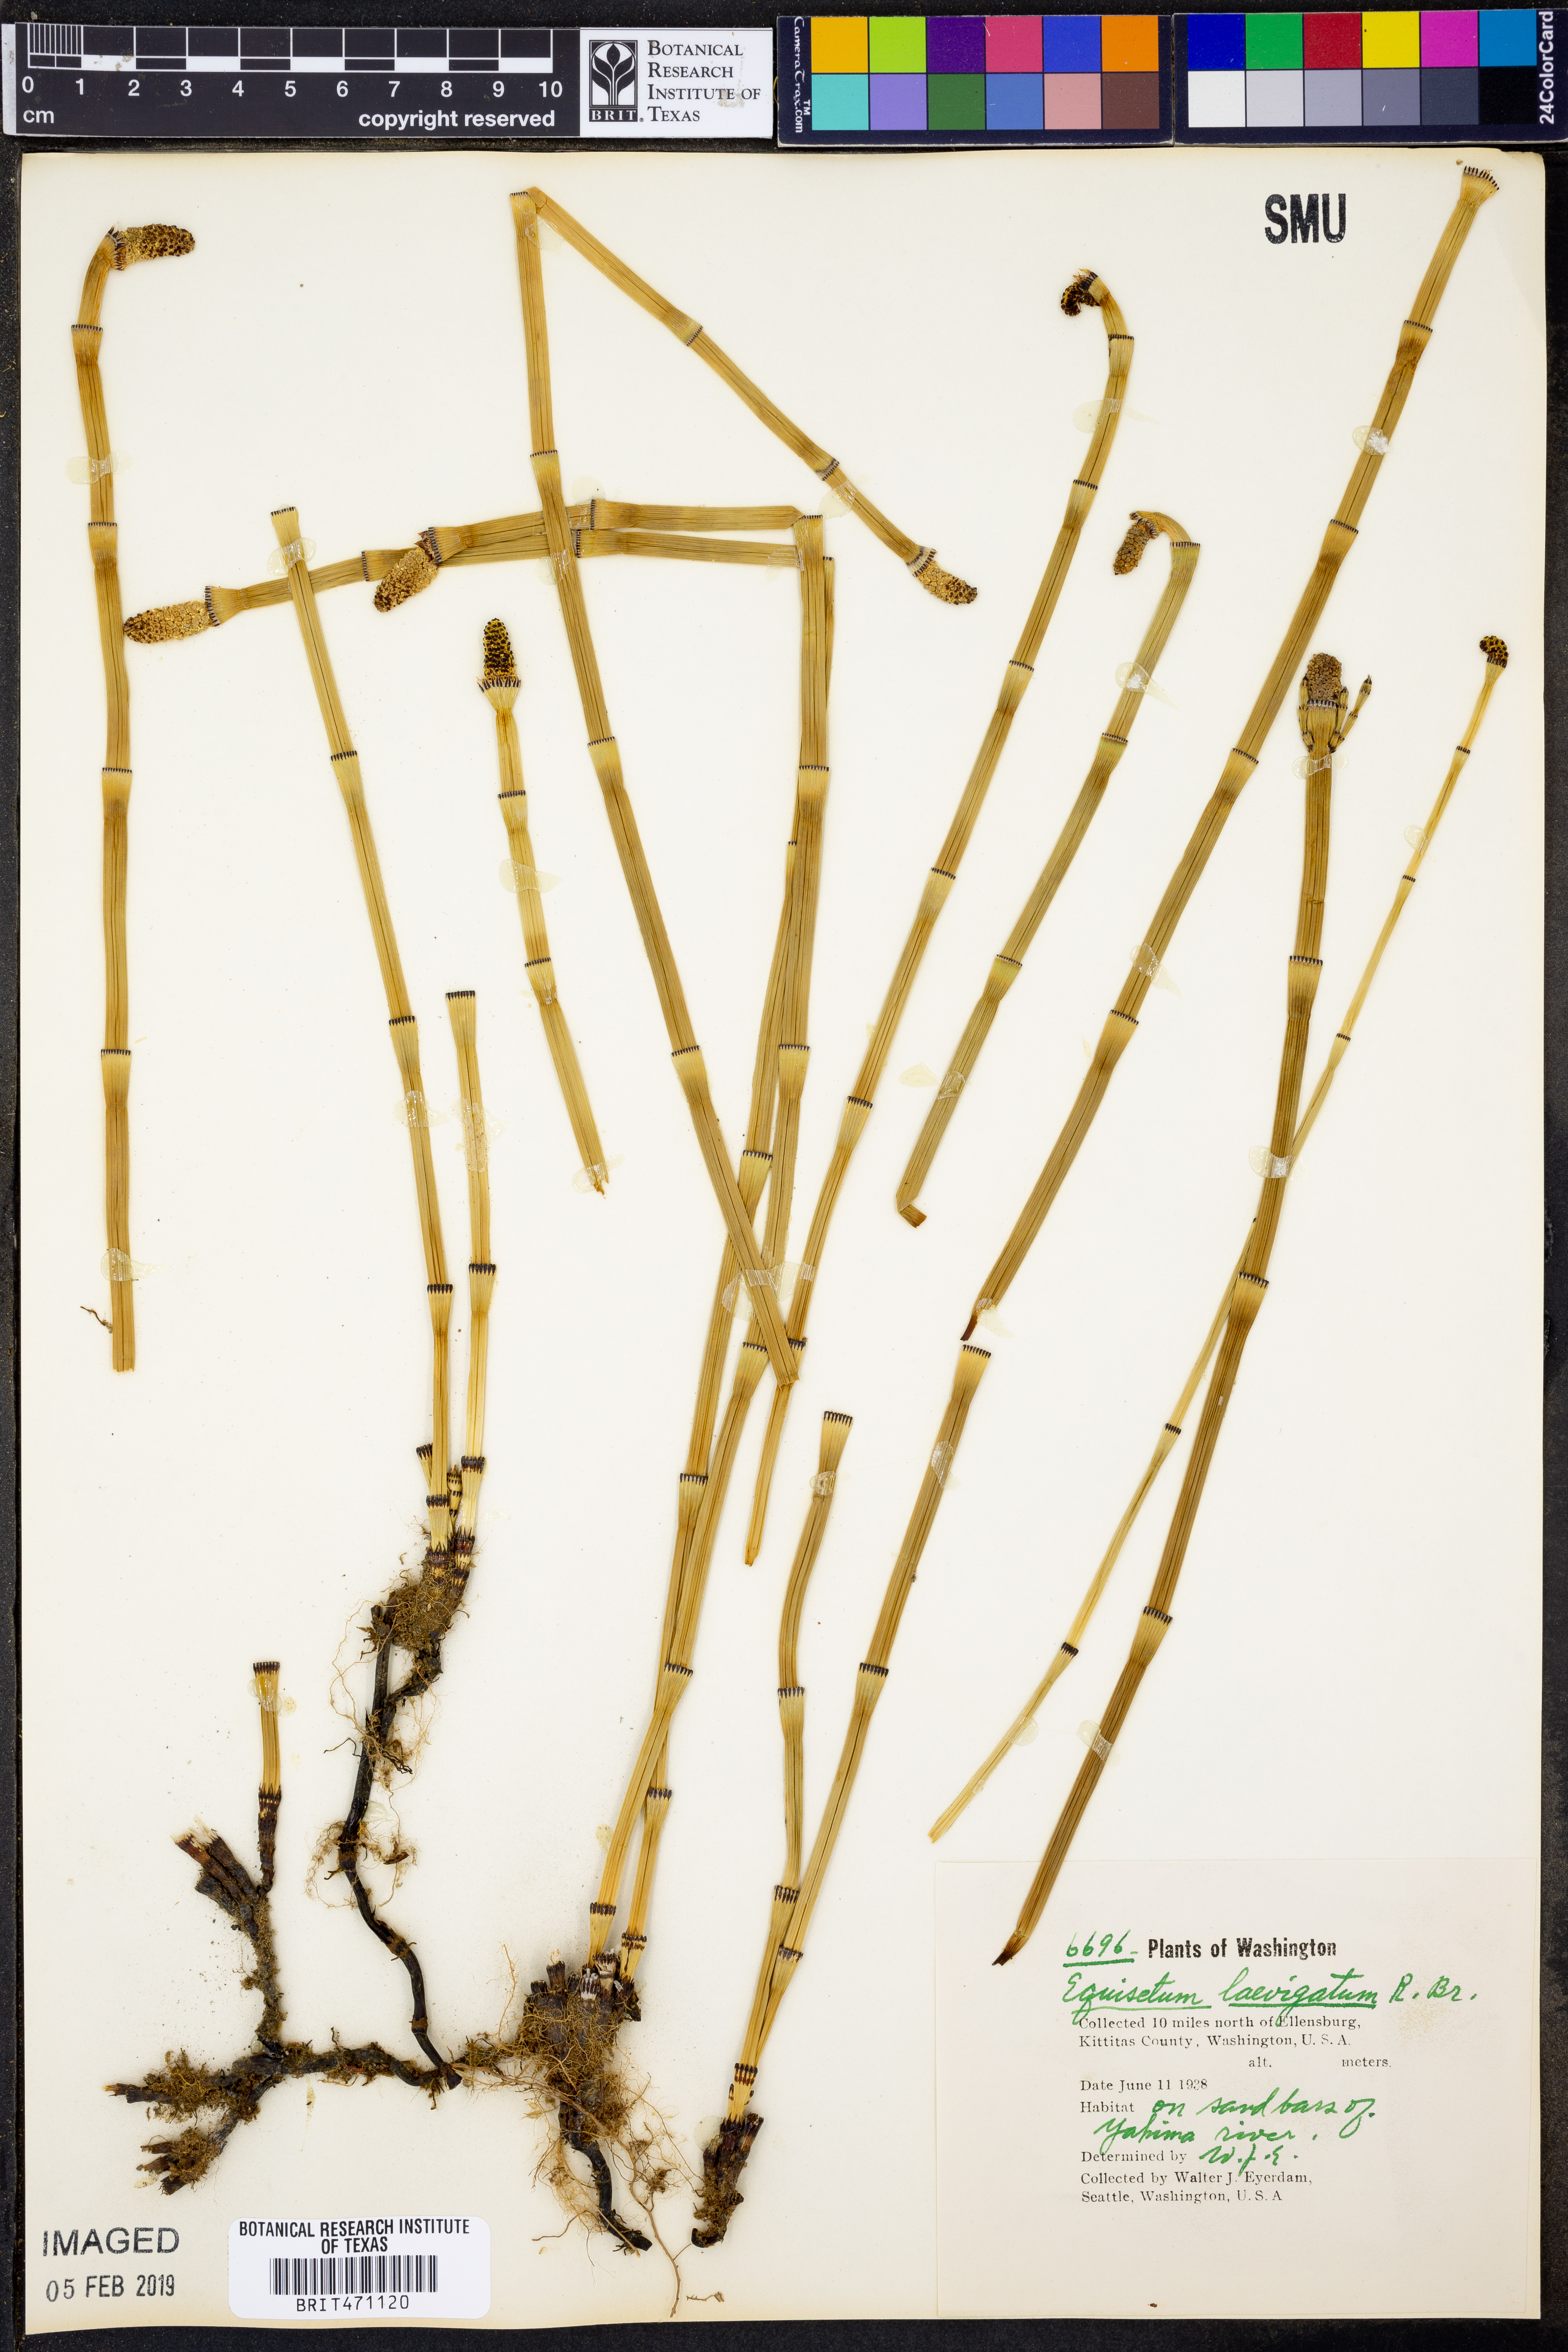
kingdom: Plantae
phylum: Tracheophyta
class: Polypodiopsida
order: Equisetales
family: Equisetaceae
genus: Equisetum
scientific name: Equisetum laevigatum
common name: Smooth scouring-rush
